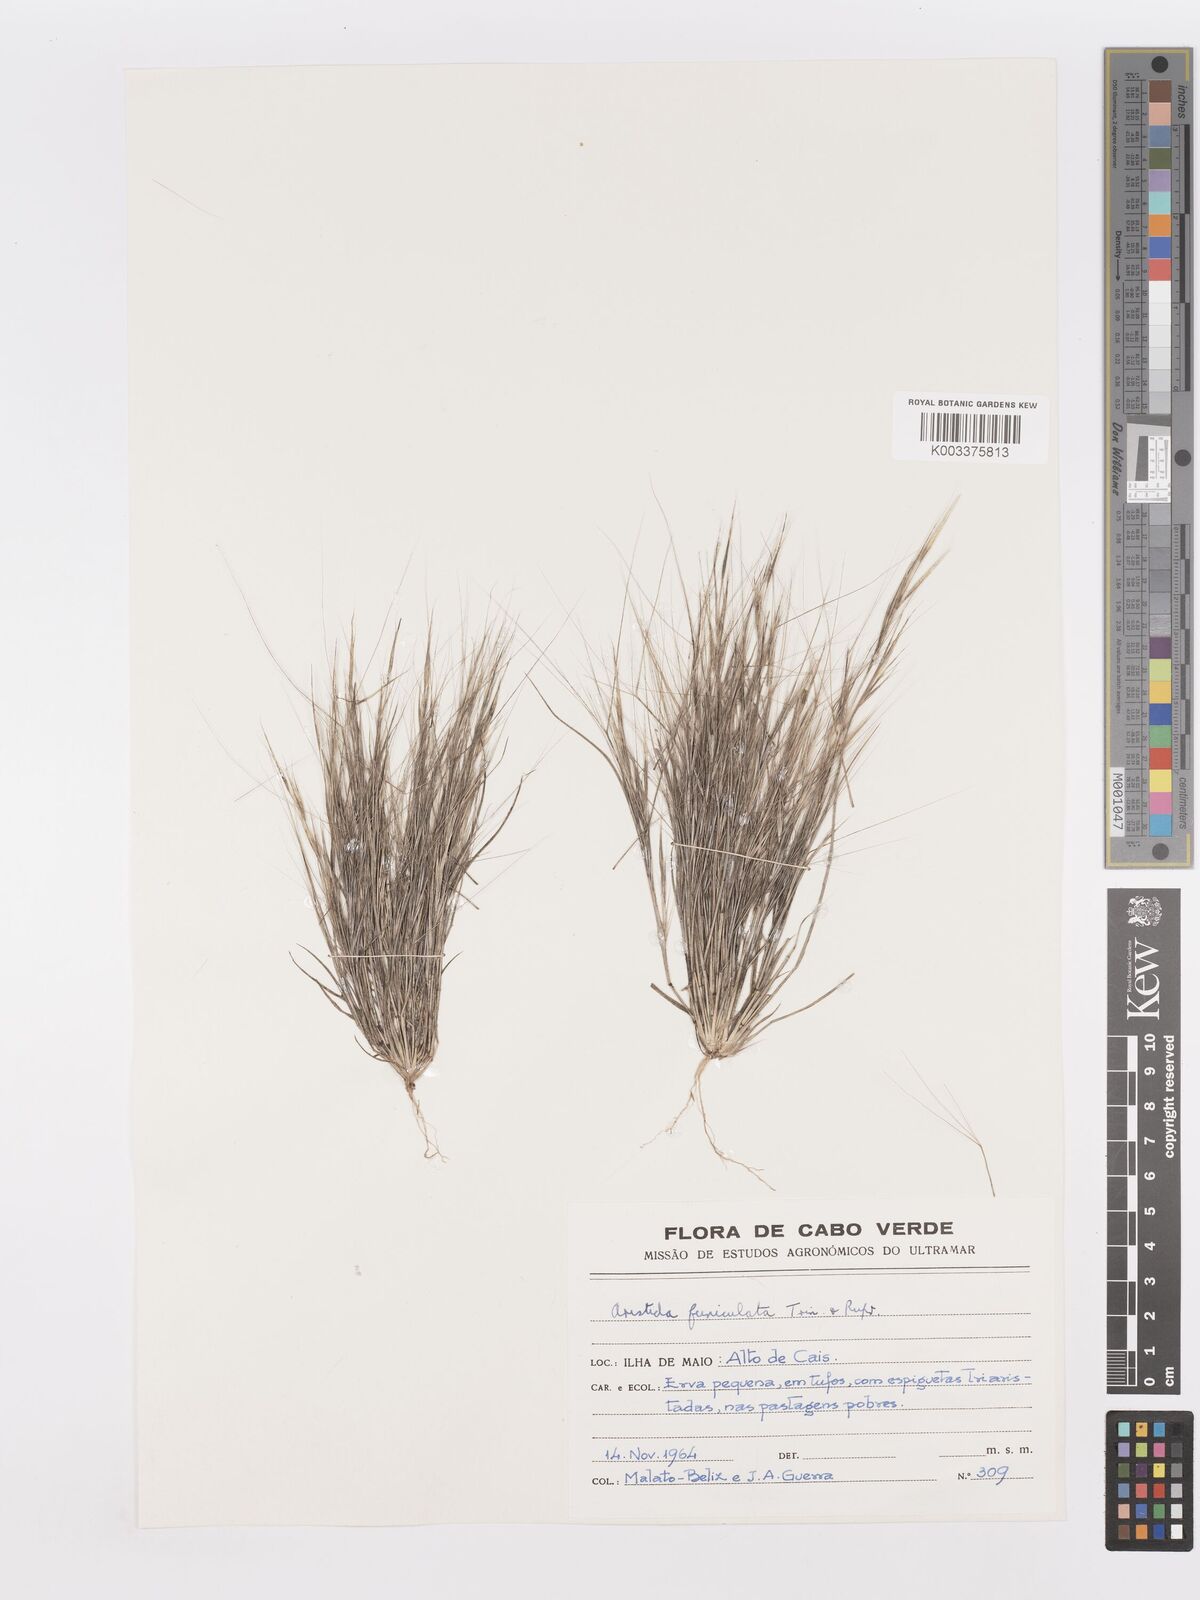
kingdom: Plantae
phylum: Tracheophyta
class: Liliopsida
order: Poales
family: Poaceae
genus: Aristida
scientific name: Aristida funiculata
